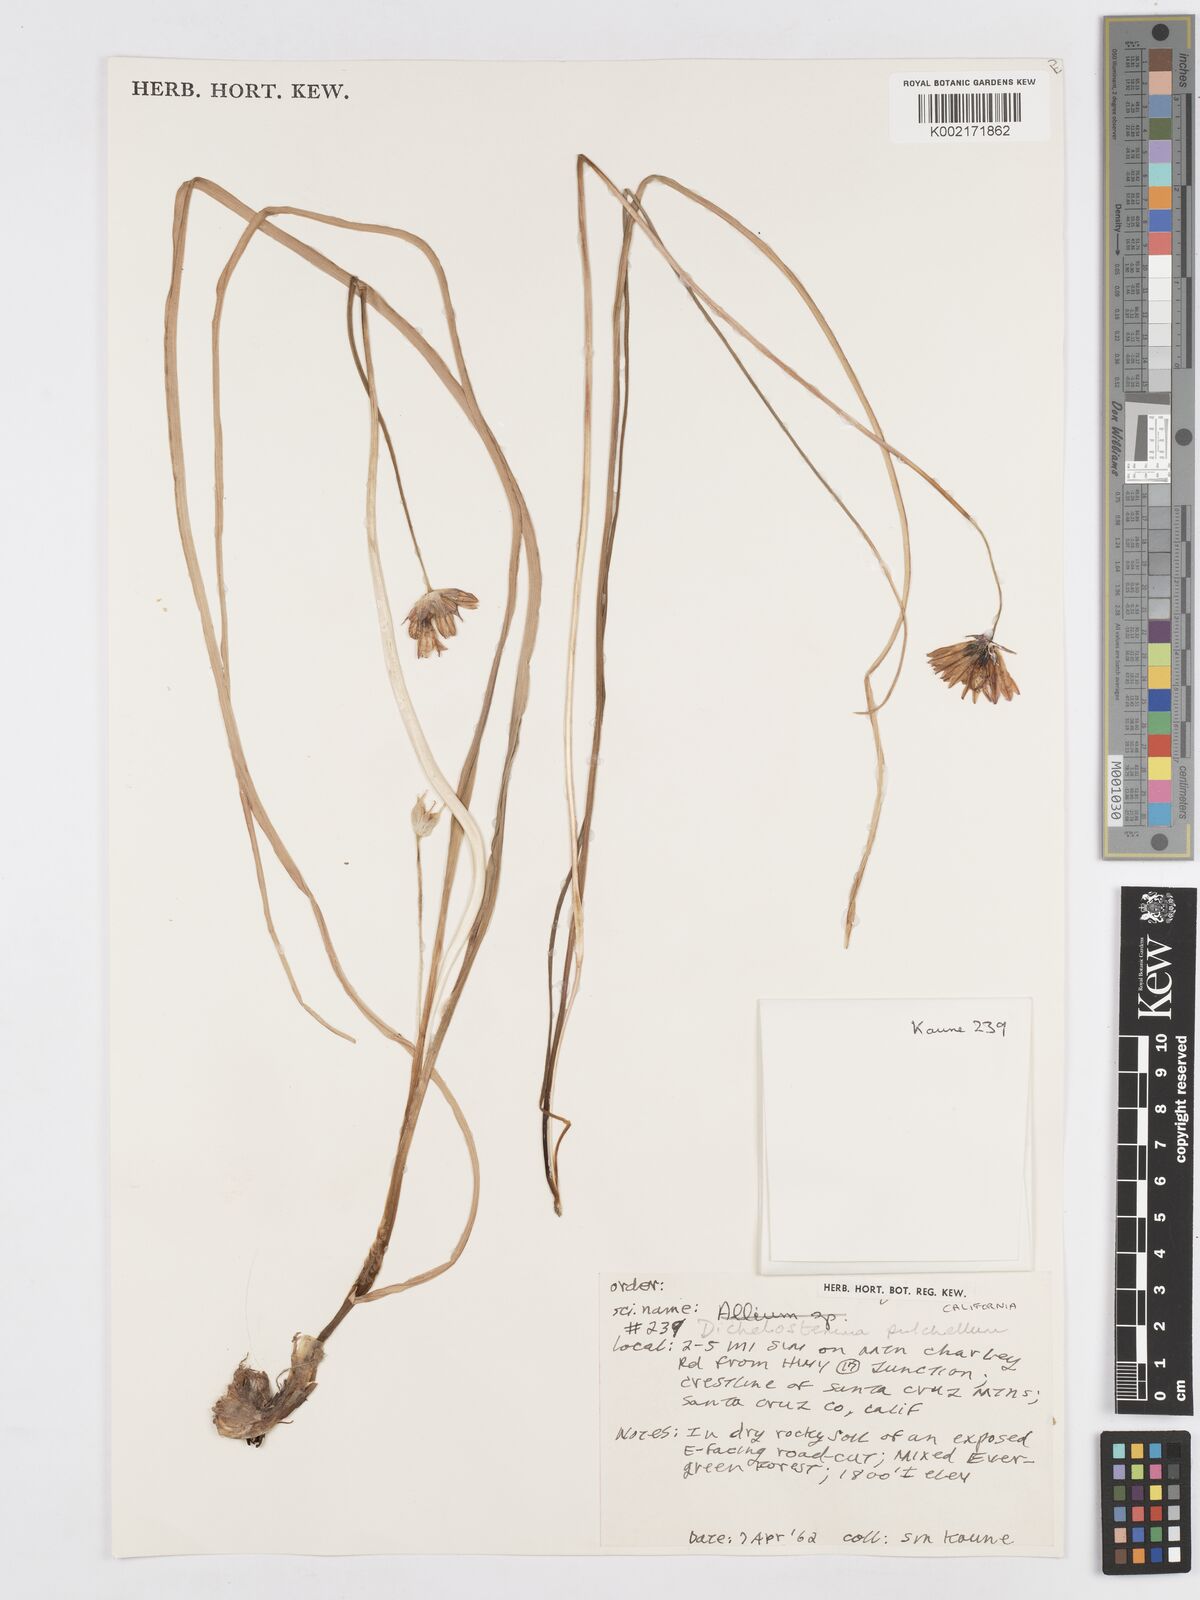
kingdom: Plantae
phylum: Tracheophyta
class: Liliopsida
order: Asparagales
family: Asparagaceae
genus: Dichelostemma
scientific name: Dichelostemma congestum
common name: Fork-tooth ookow
